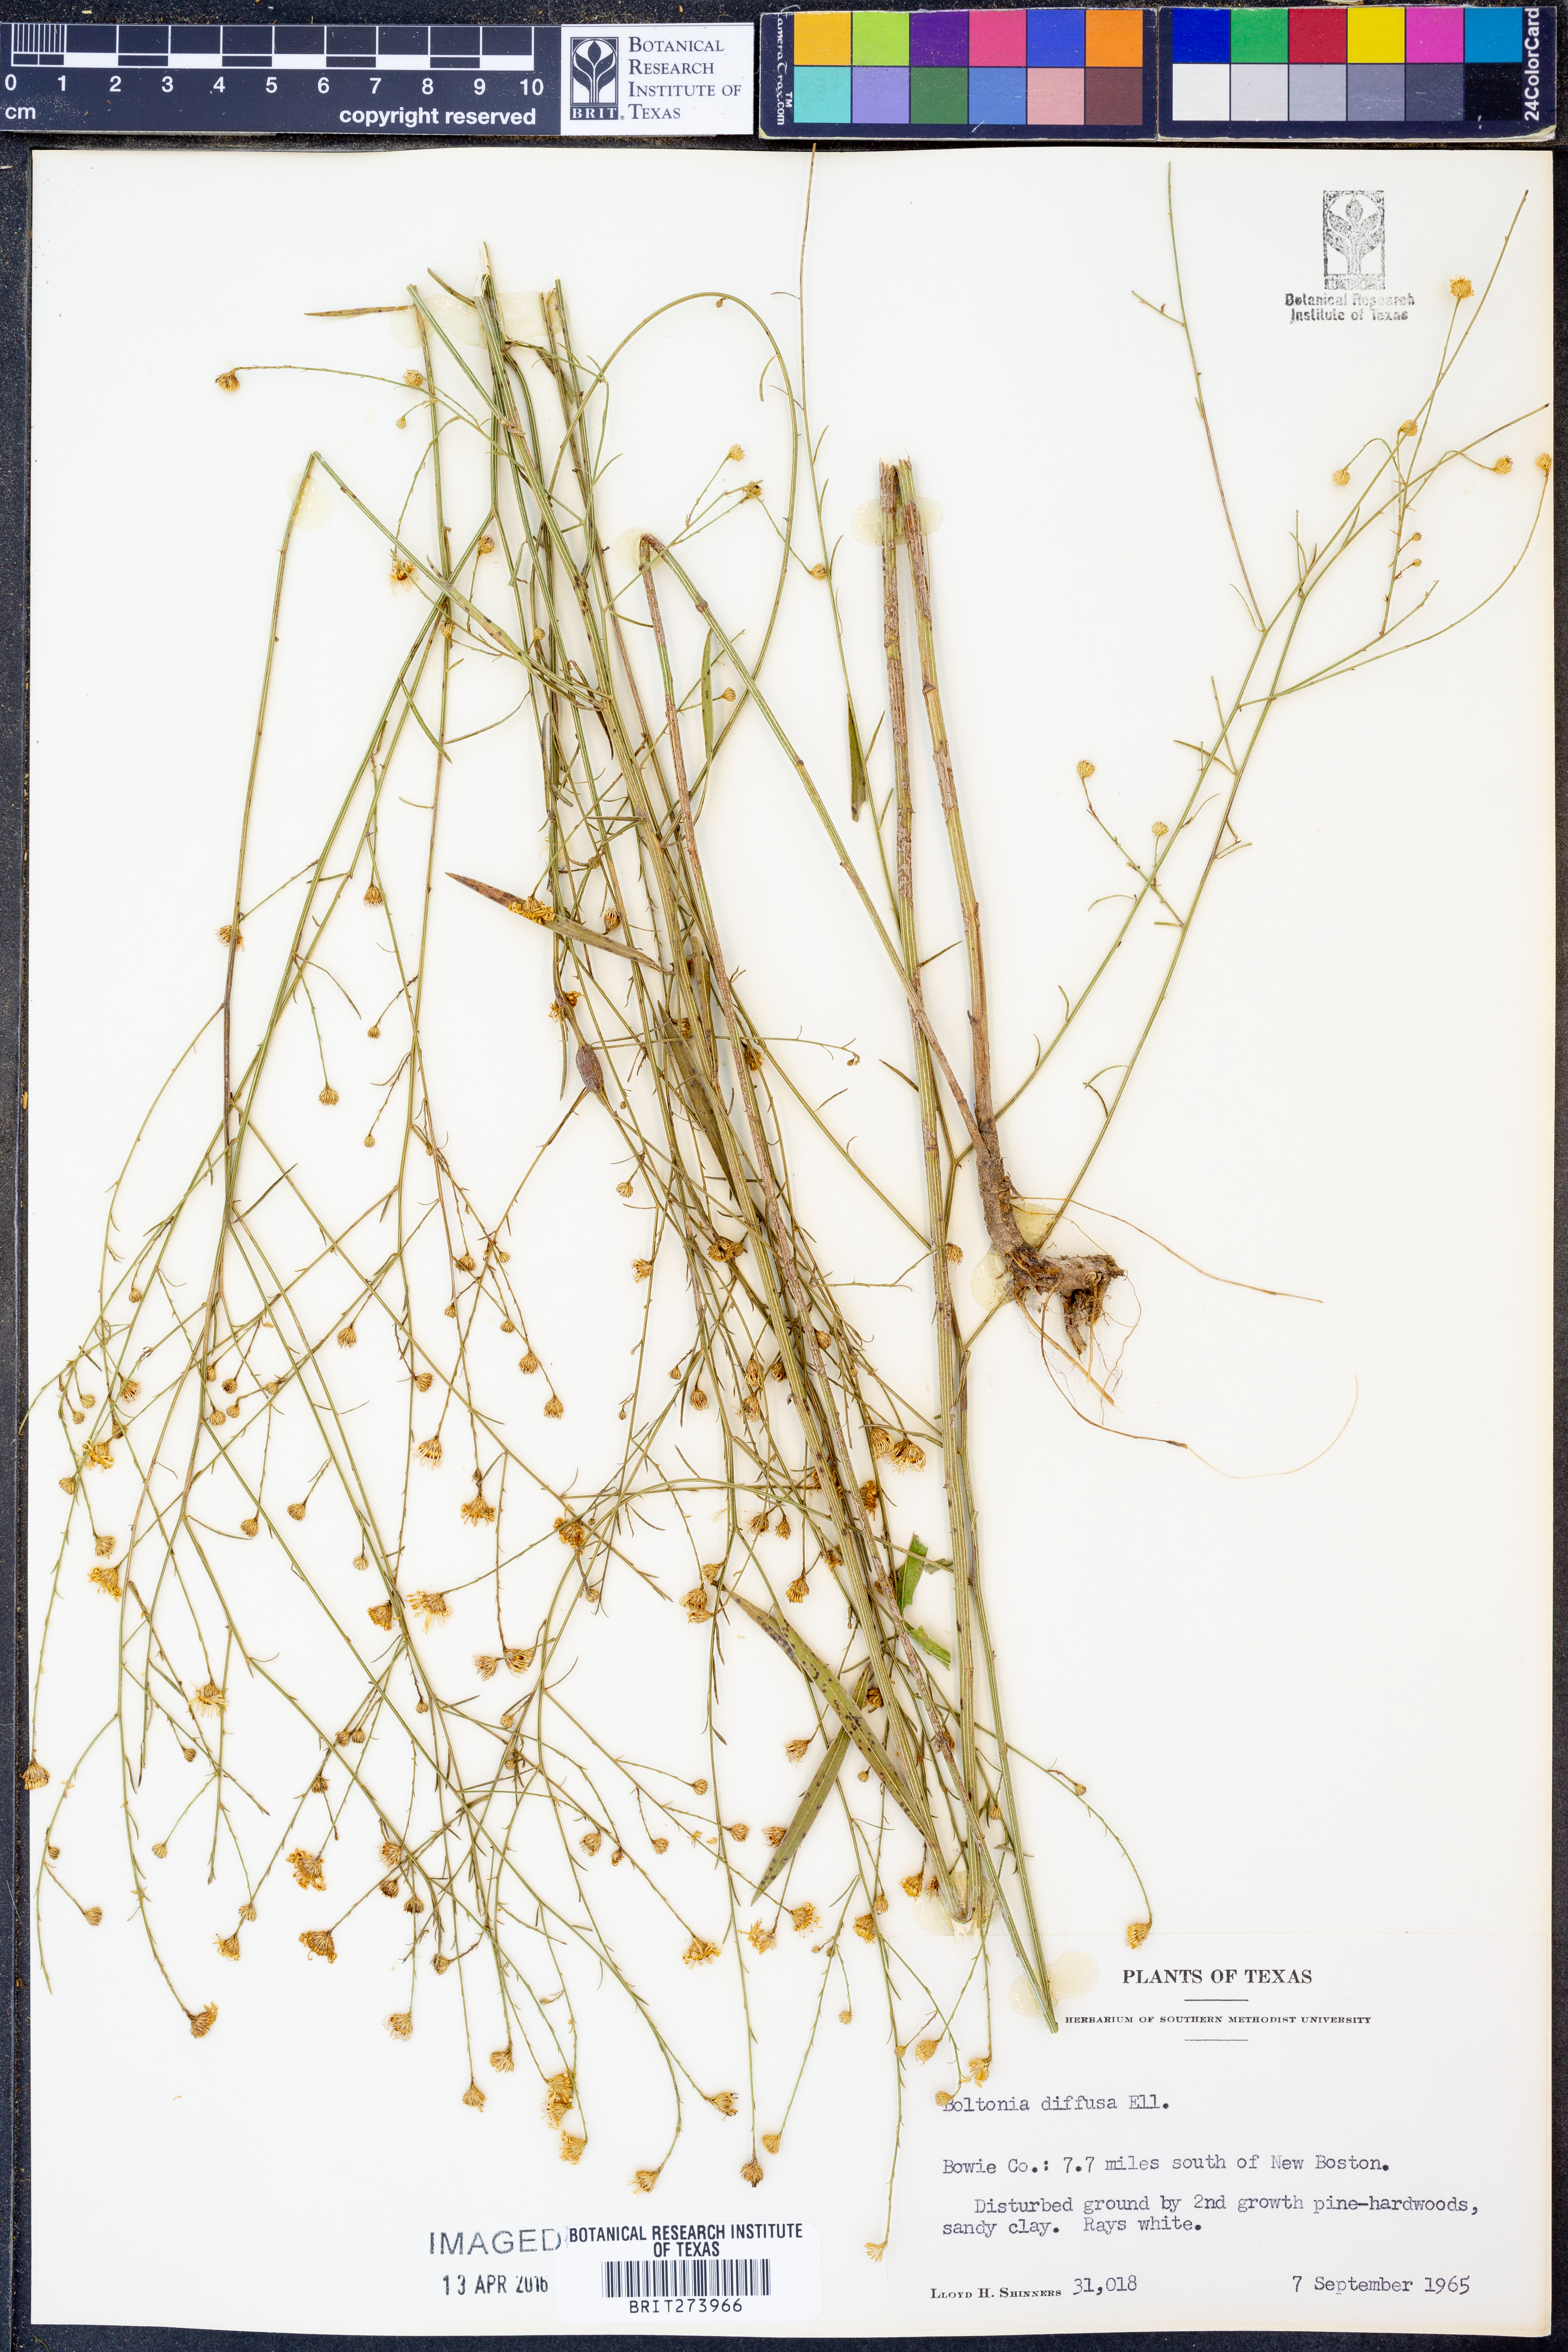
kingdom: Plantae
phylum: Tracheophyta
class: Magnoliopsida
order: Asterales
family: Asteraceae
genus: Boltonia
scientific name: Boltonia diffusa
